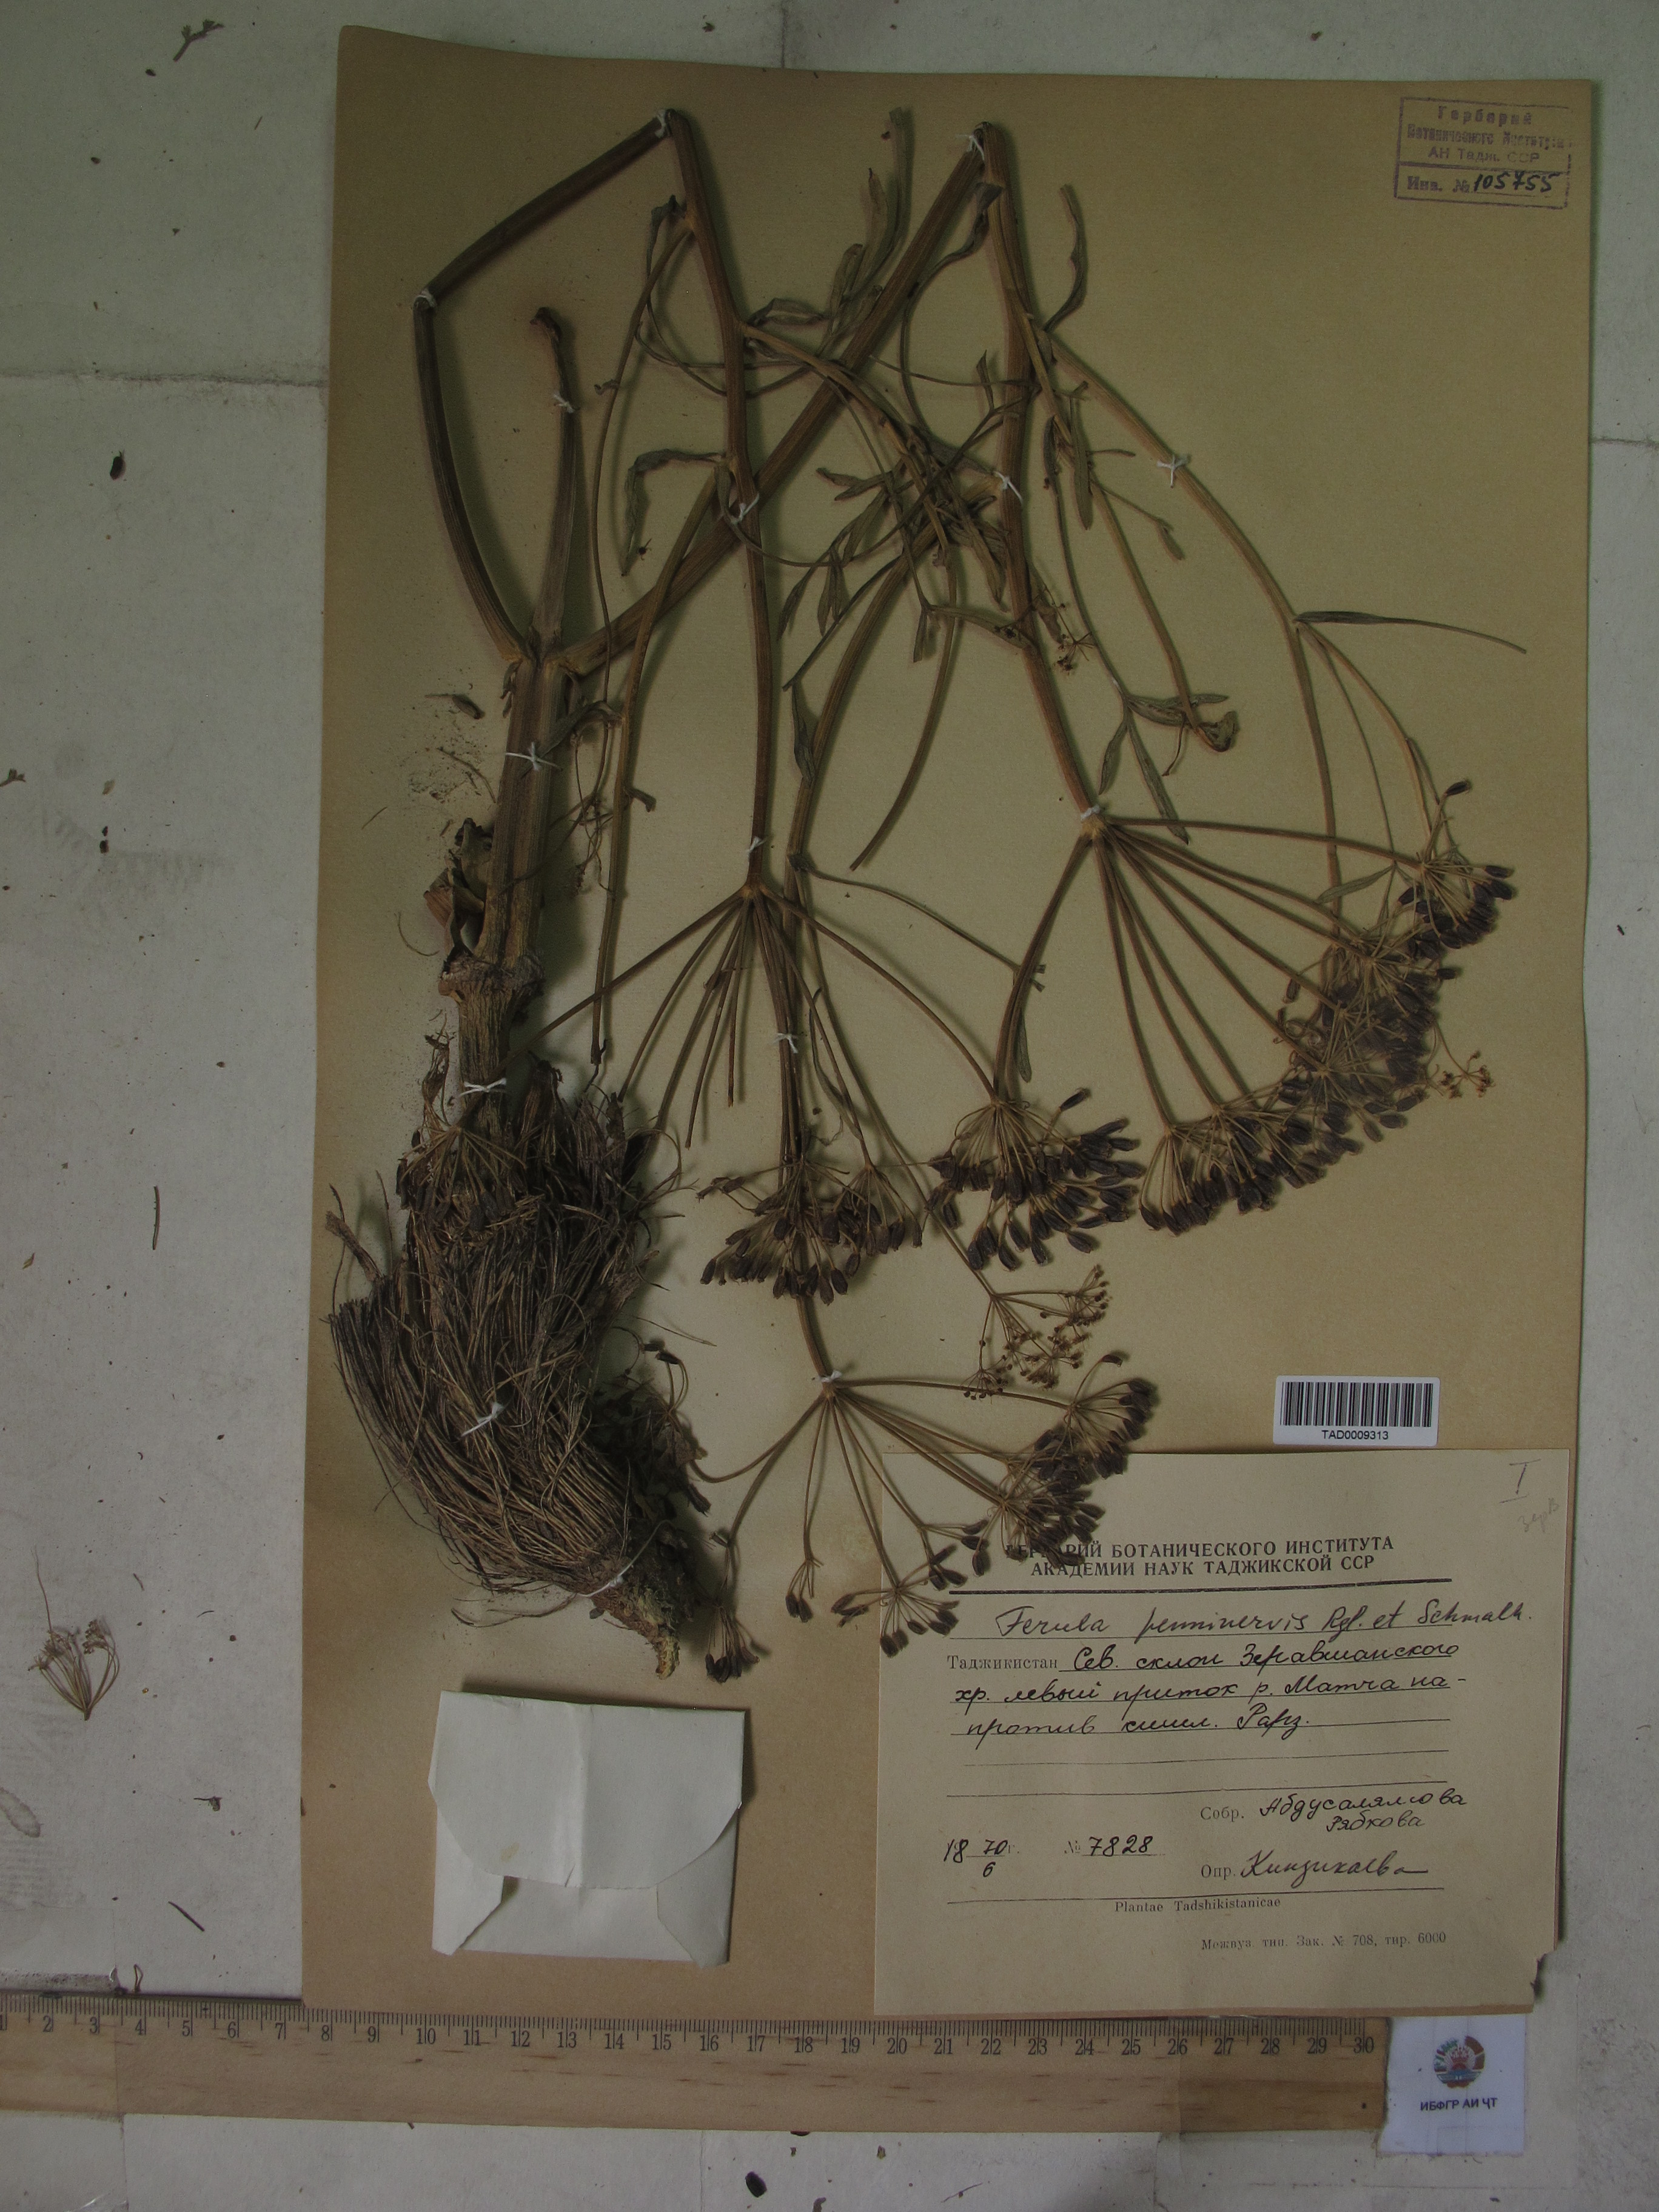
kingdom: Plantae
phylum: Tracheophyta
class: Magnoliopsida
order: Apiales
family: Apiaceae
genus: Ferula
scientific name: Ferula penninervis
